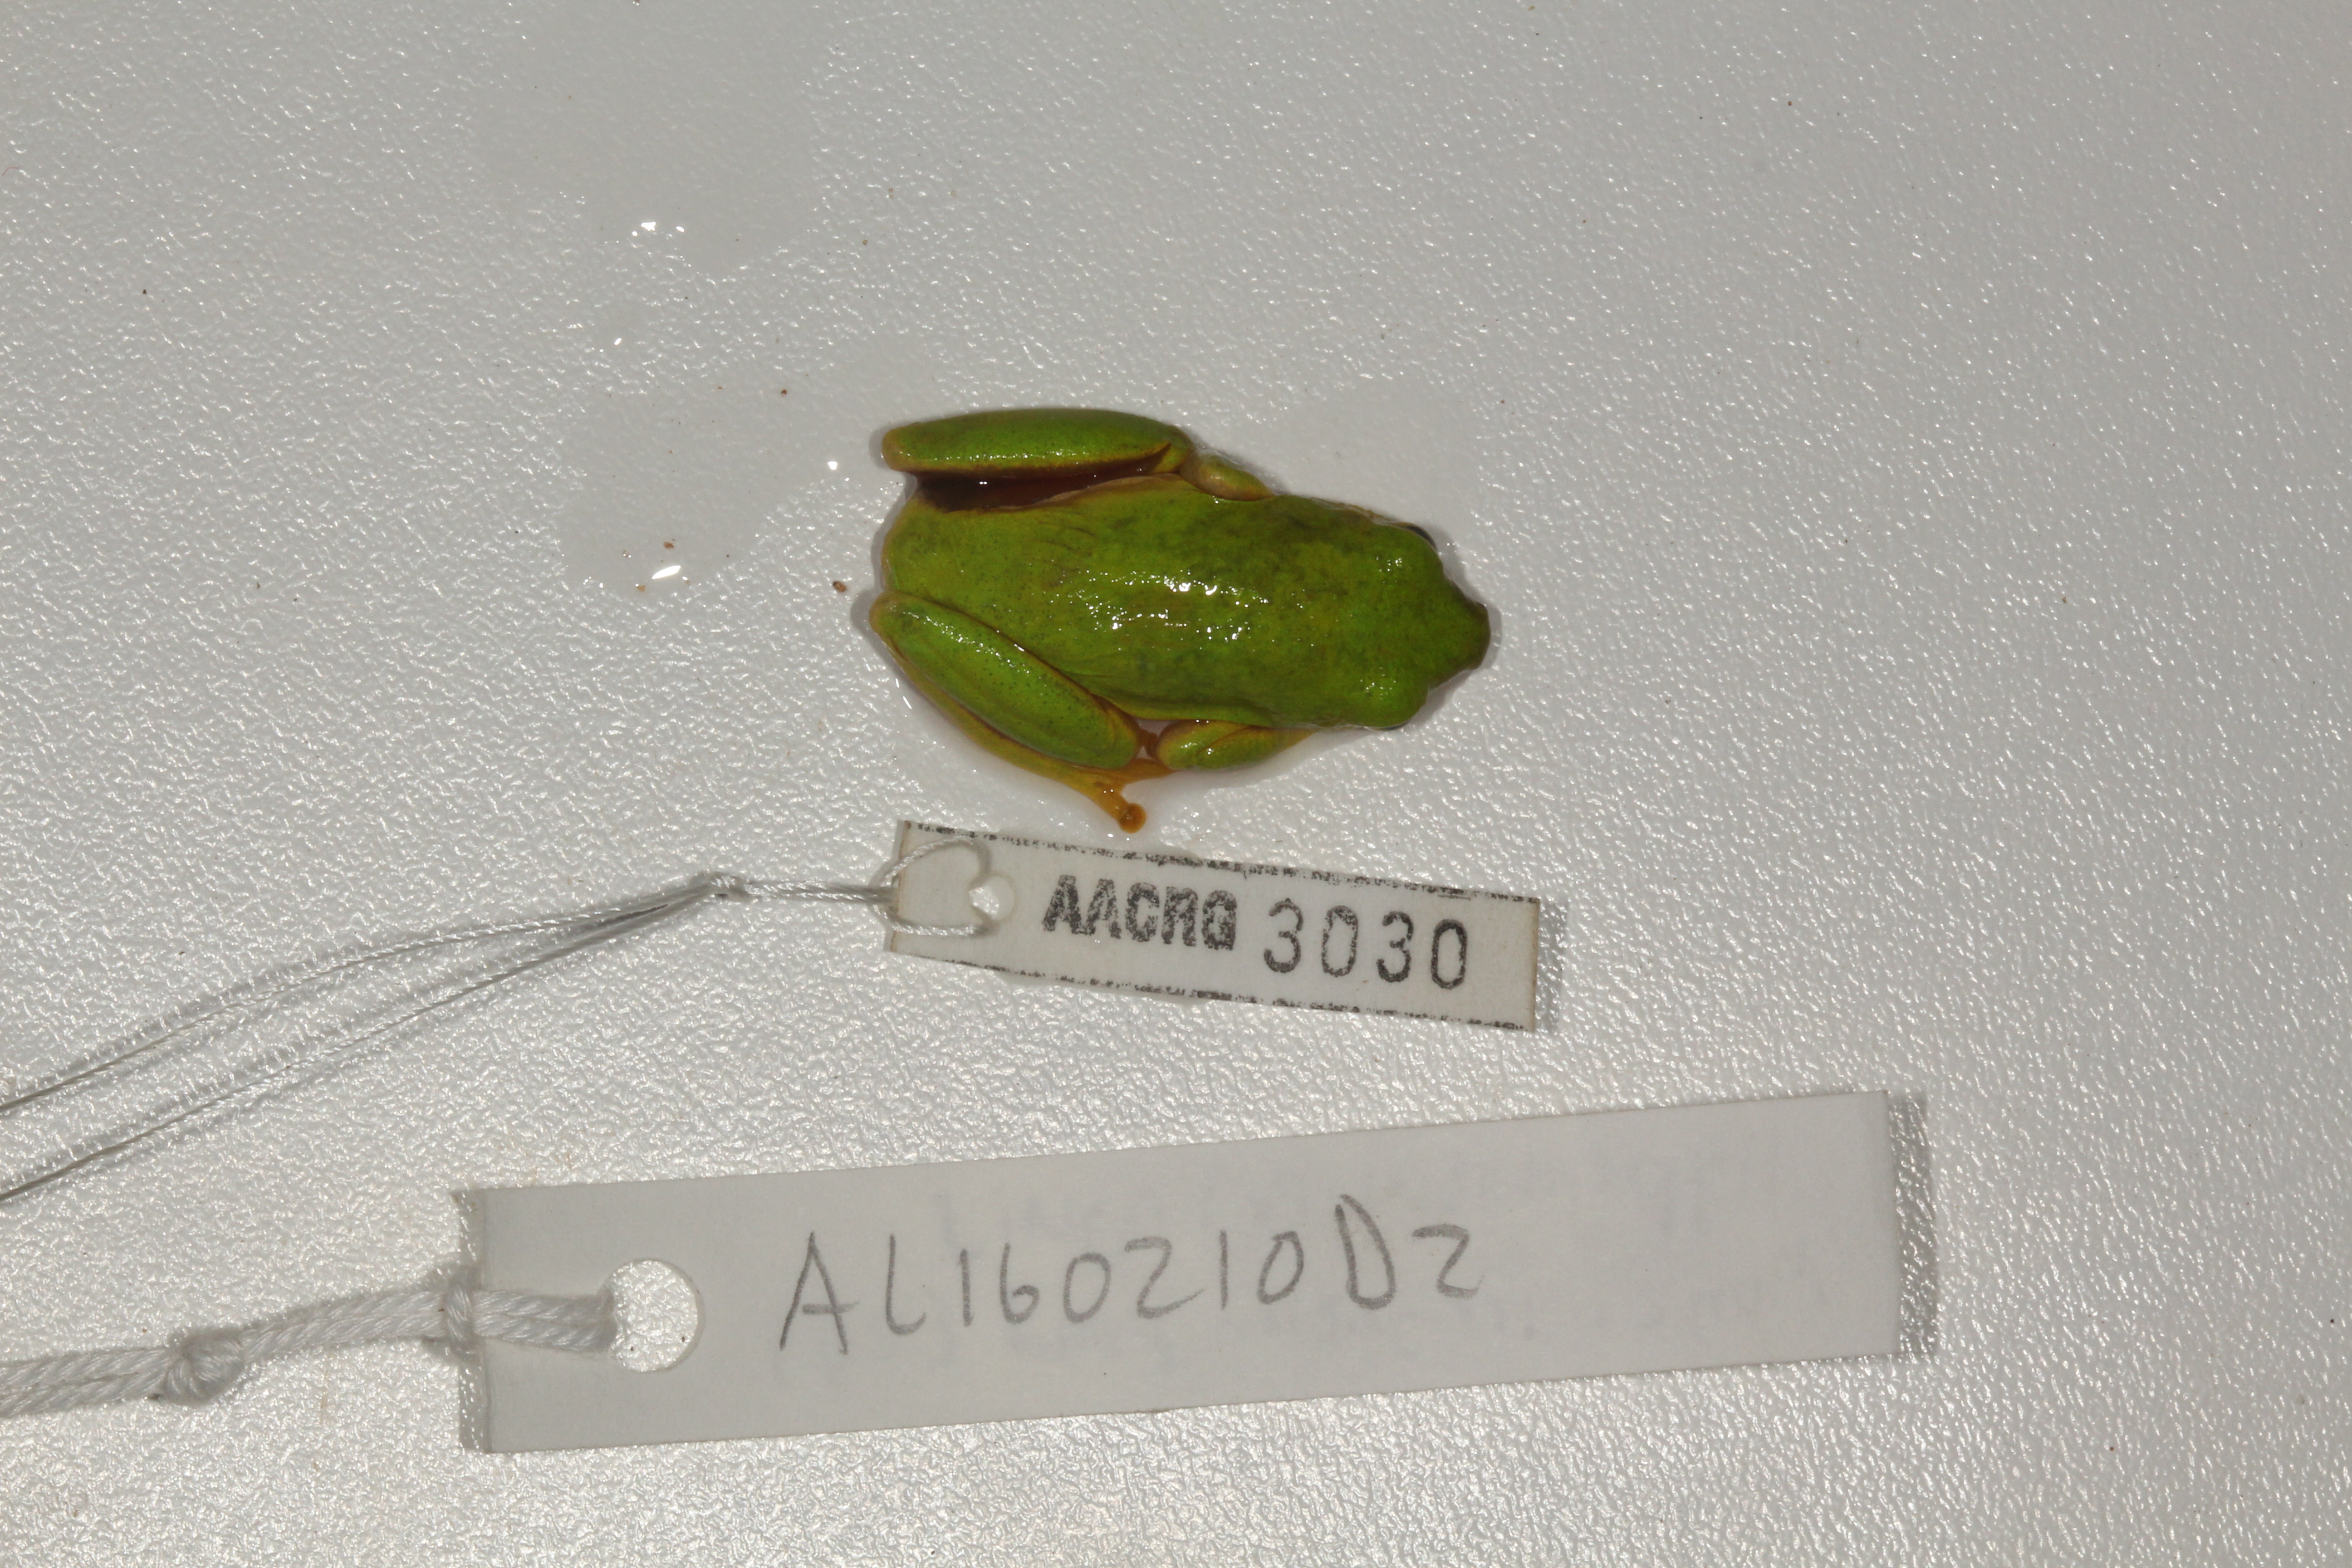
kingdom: Animalia
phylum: Chordata
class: Amphibia
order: Anura
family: Hyperoliidae
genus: Hyperolius
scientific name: Hyperolius tuberilinguis
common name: Tinker reed frog
